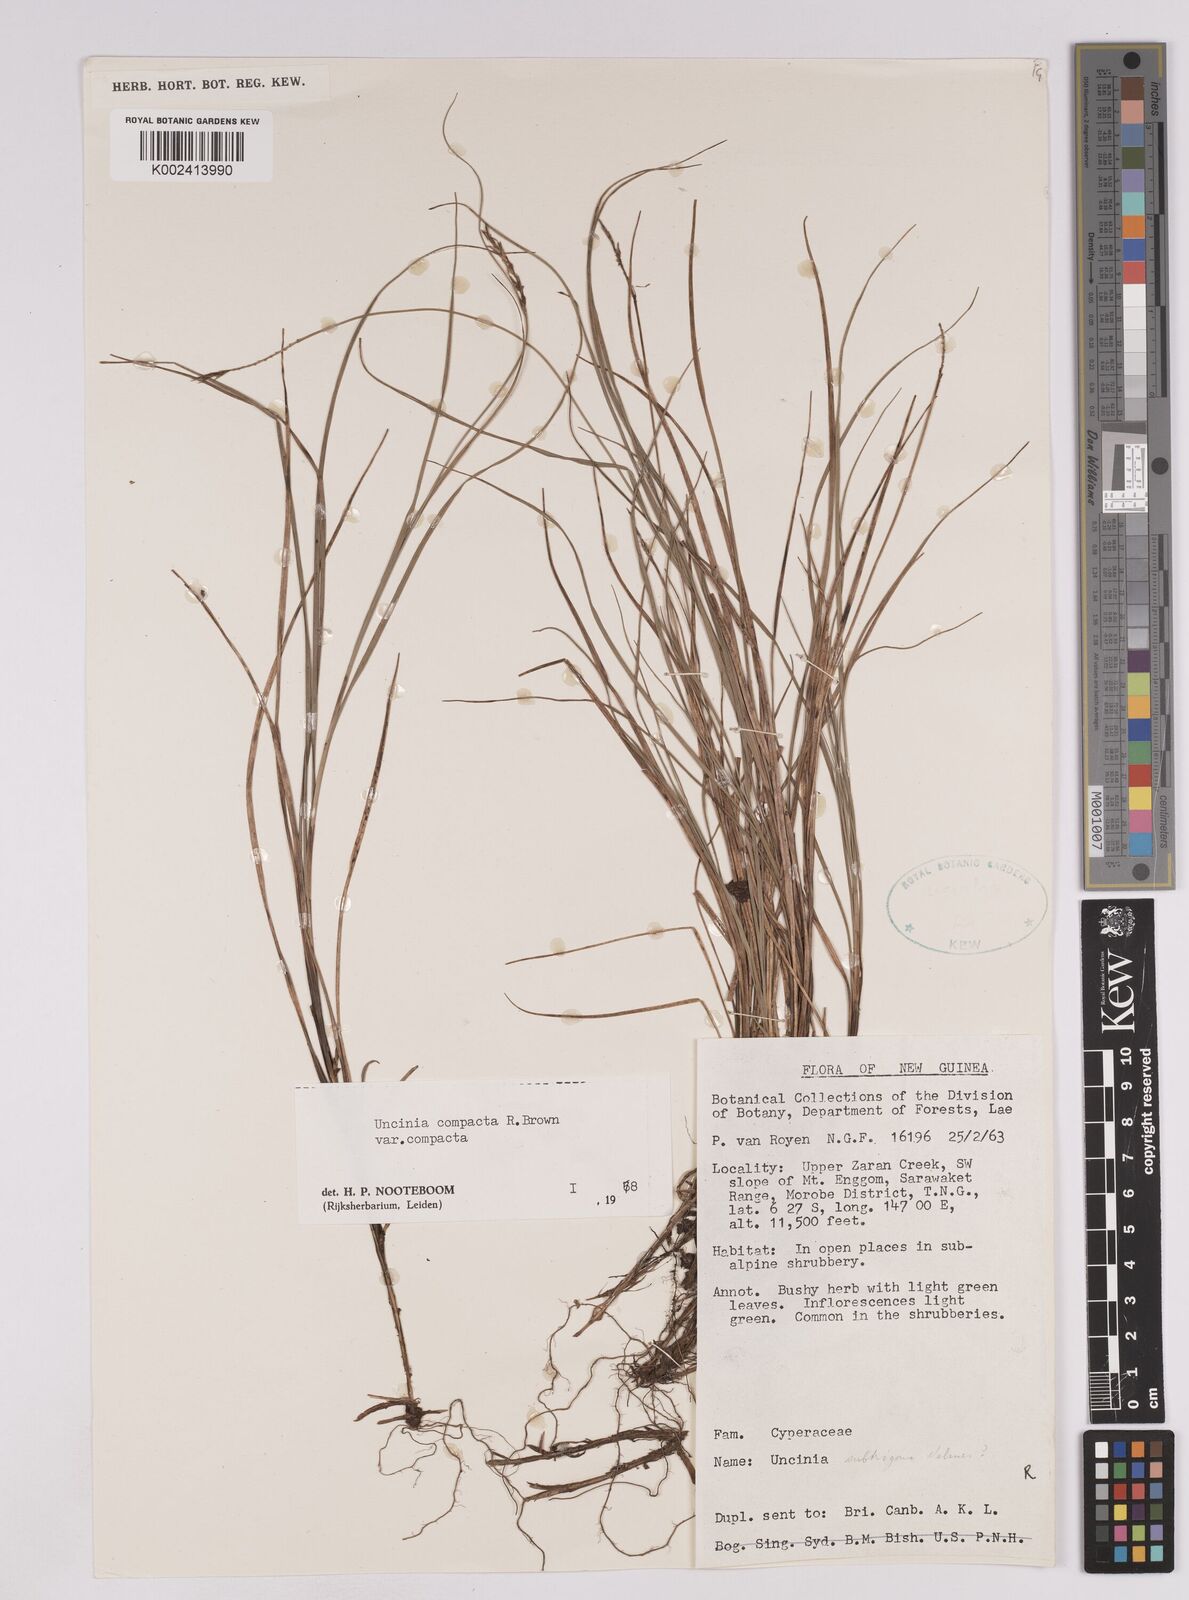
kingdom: Plantae
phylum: Tracheophyta
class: Liliopsida
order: Poales
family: Cyperaceae
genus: Carex
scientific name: Carex austrocompacta
